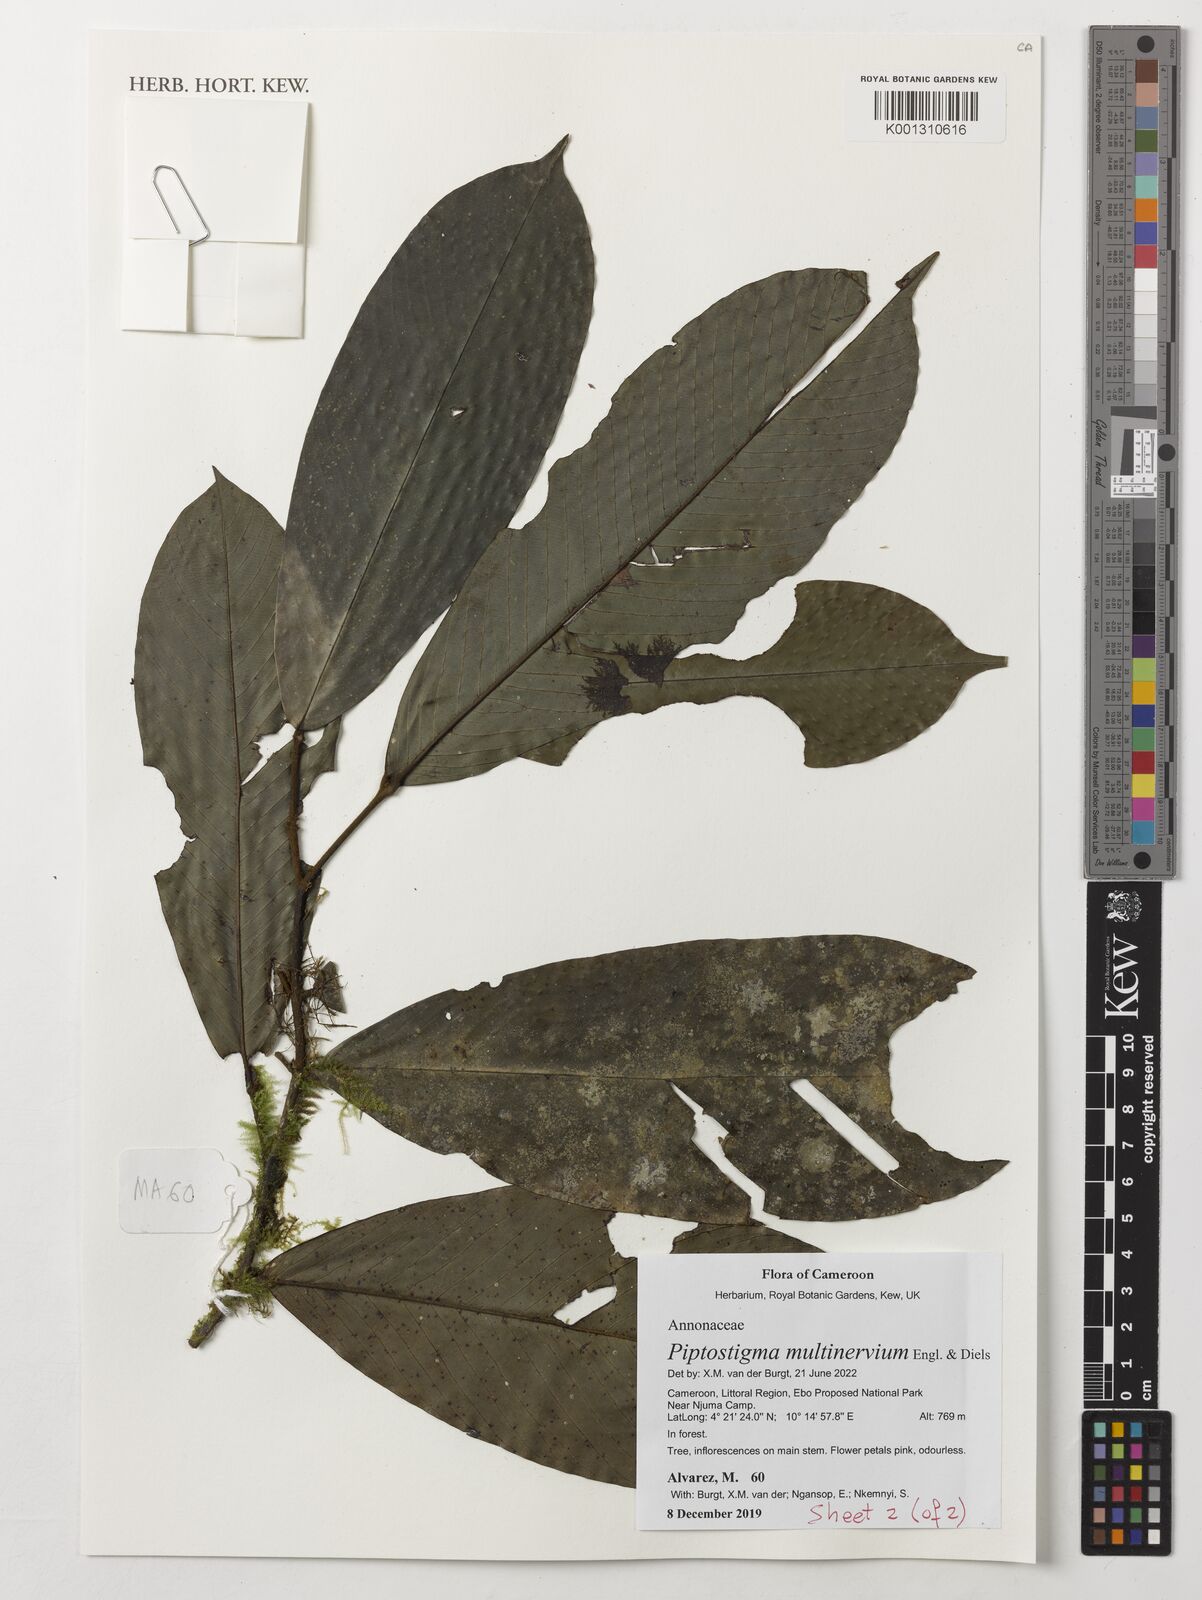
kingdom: Plantae
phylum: Tracheophyta
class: Magnoliopsida
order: Magnoliales
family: Annonaceae
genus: Piptostigma
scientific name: Piptostigma multinervium
